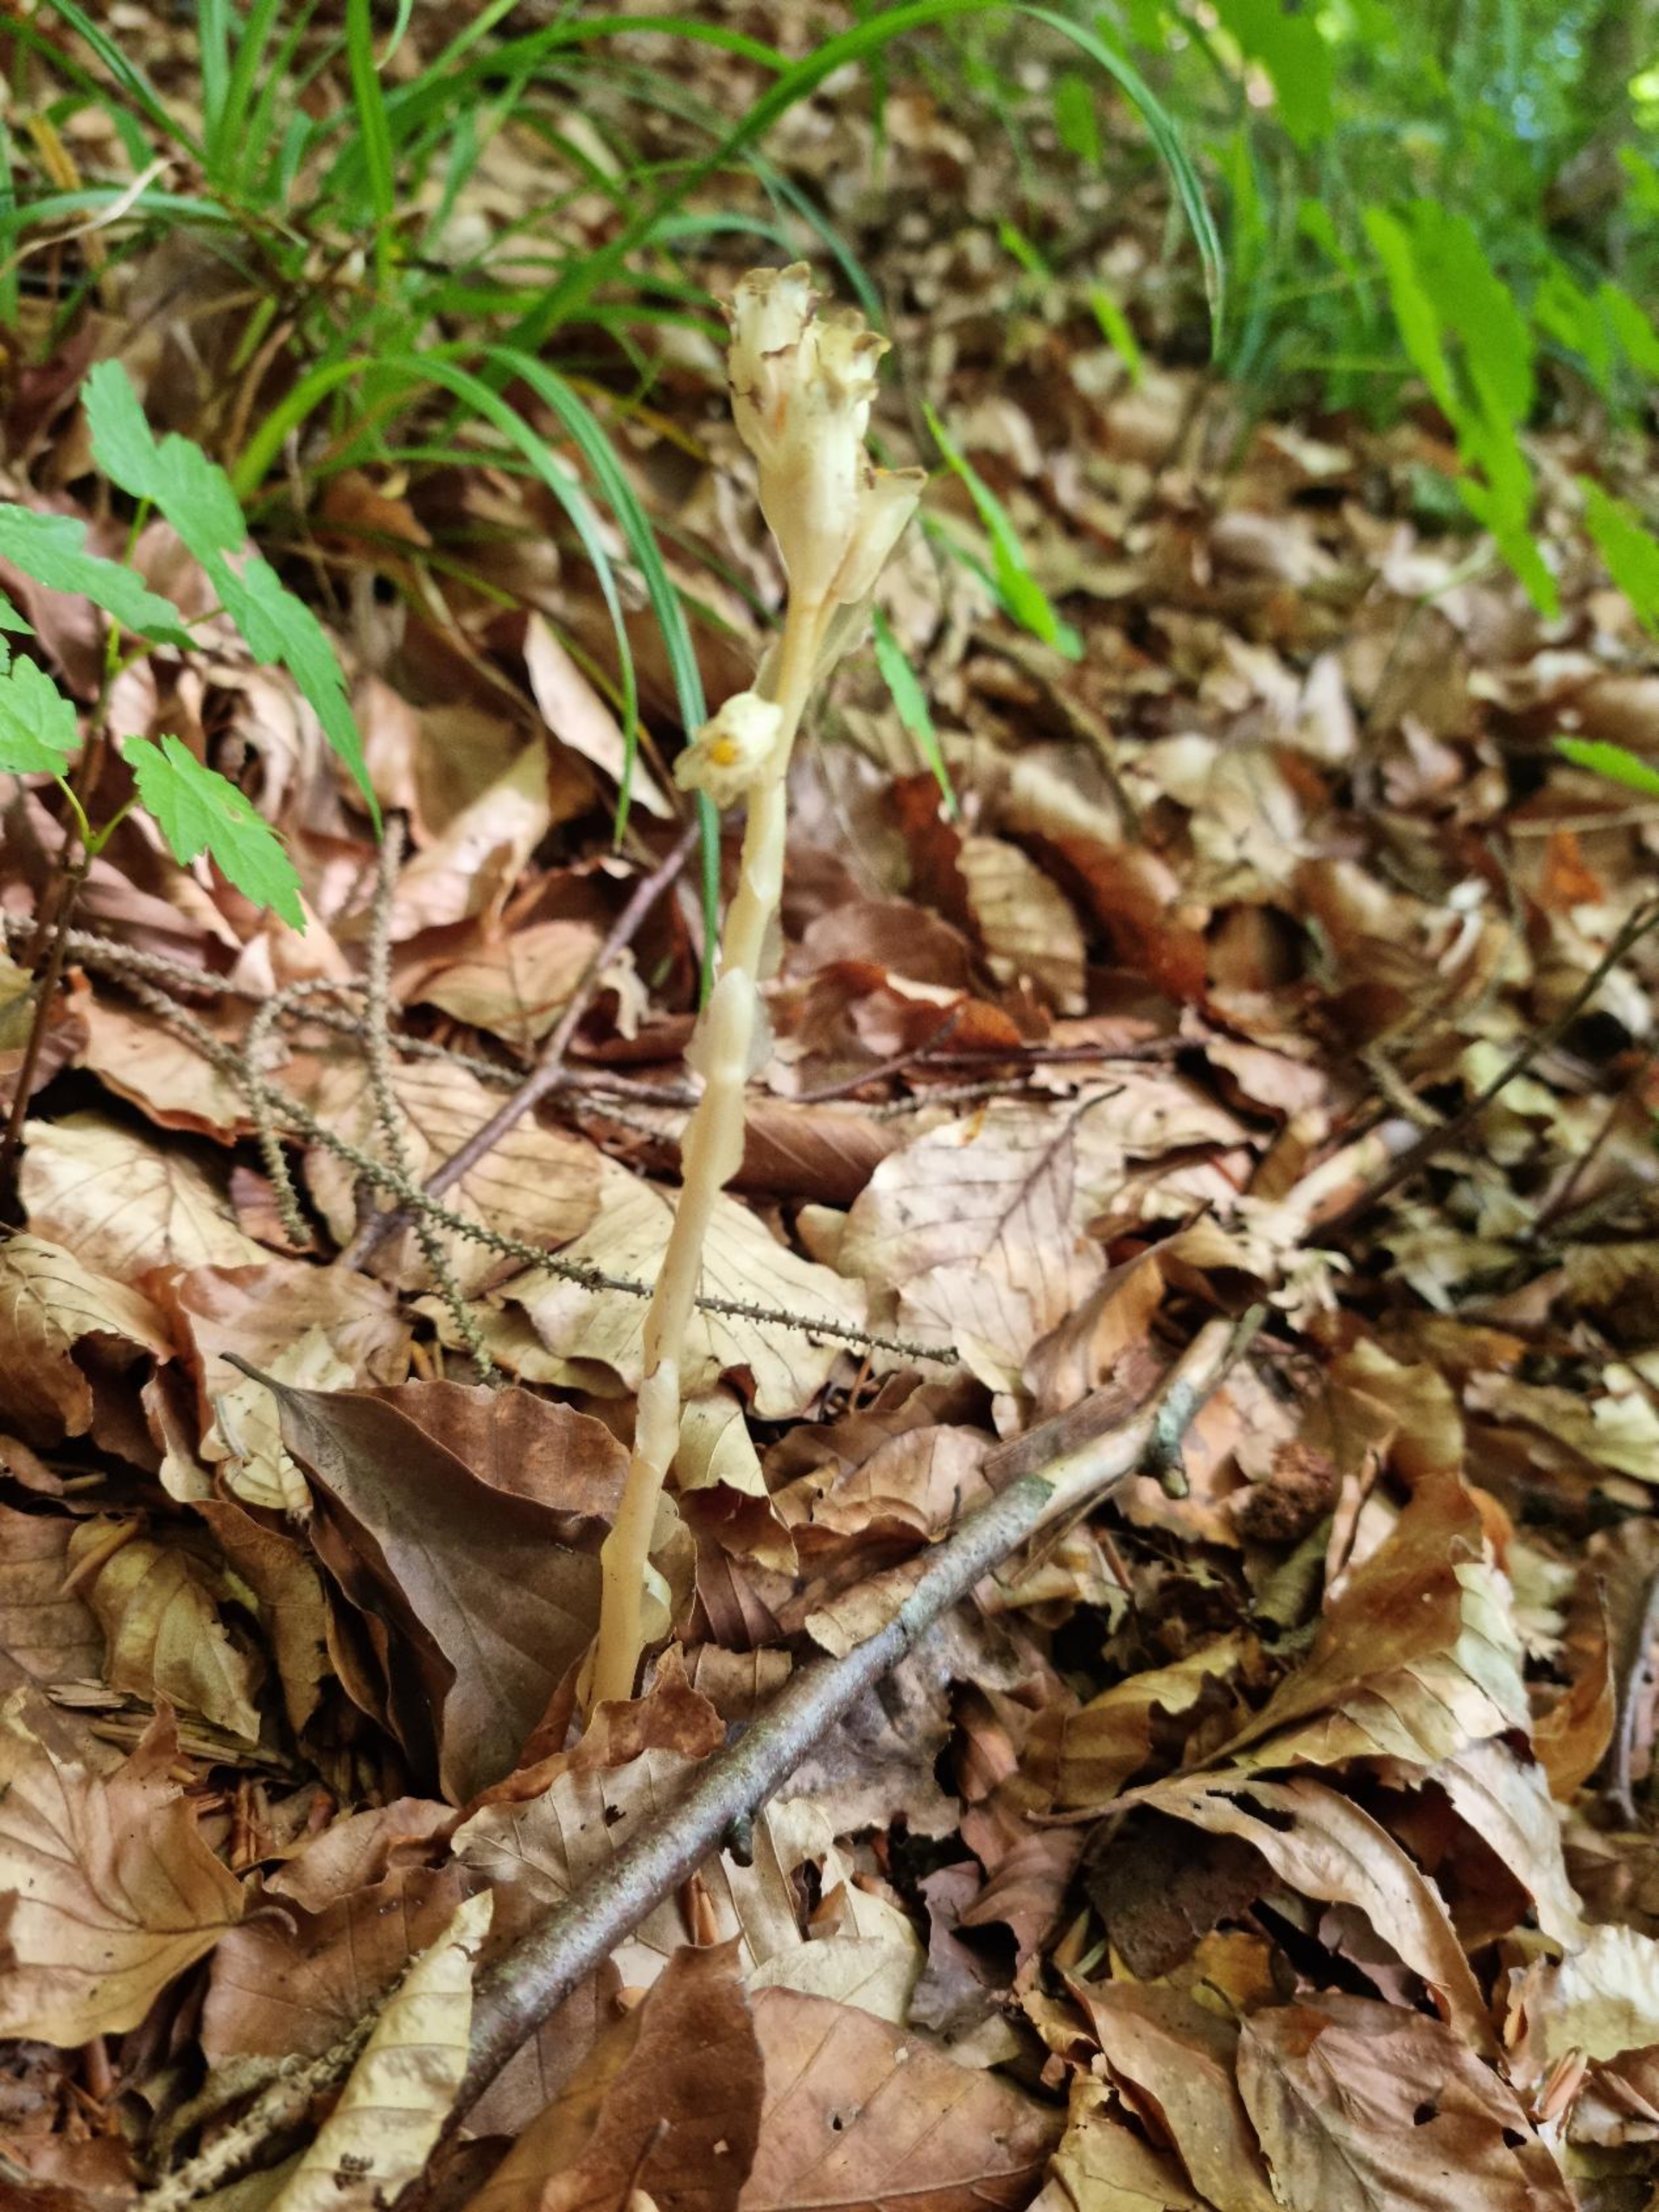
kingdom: Plantae
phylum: Tracheophyta
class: Magnoliopsida
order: Ericales
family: Ericaceae
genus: Hypopitys
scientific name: Hypopitys monotropa
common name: Snylterod
